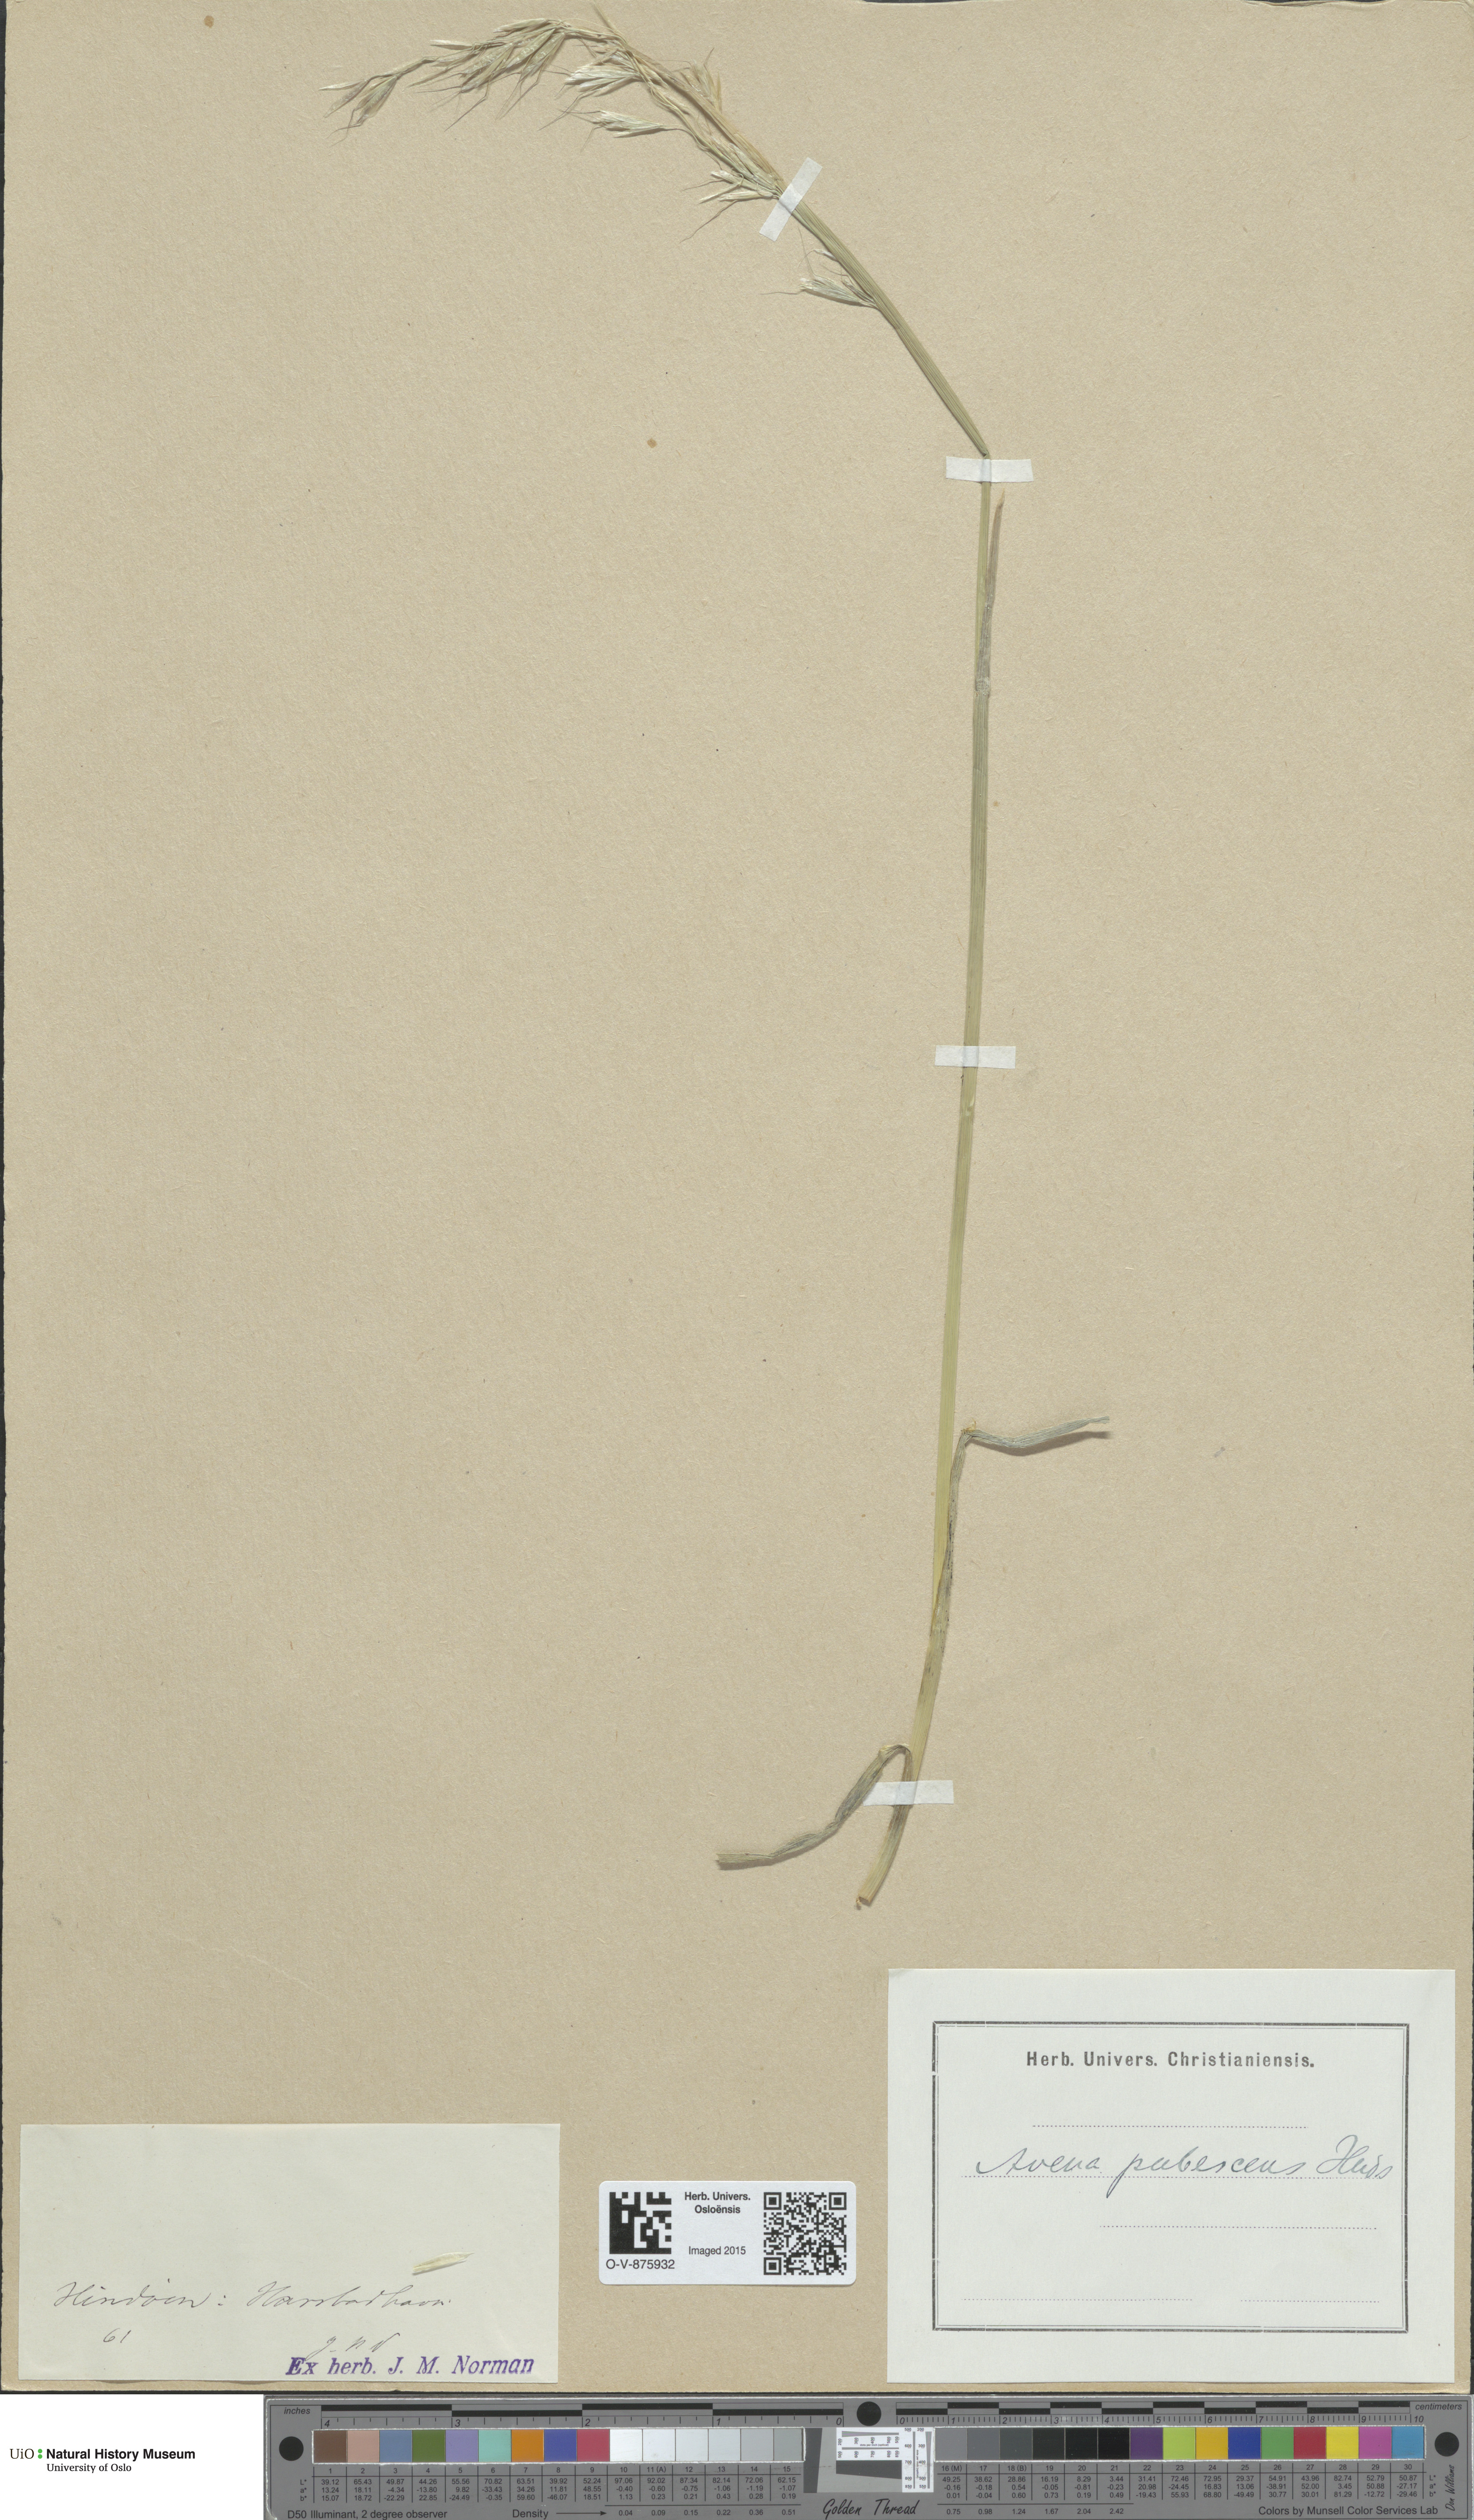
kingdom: Plantae
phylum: Tracheophyta
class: Liliopsida
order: Poales
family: Poaceae
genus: Avenula
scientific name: Avenula pubescens
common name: Downy alpine oatgrass
